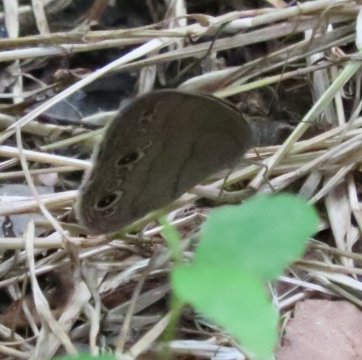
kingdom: Animalia
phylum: Arthropoda
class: Insecta
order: Lepidoptera
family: Nymphalidae
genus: Hermeuptychia
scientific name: Hermeuptychia hermes
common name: Carolina Satyr
